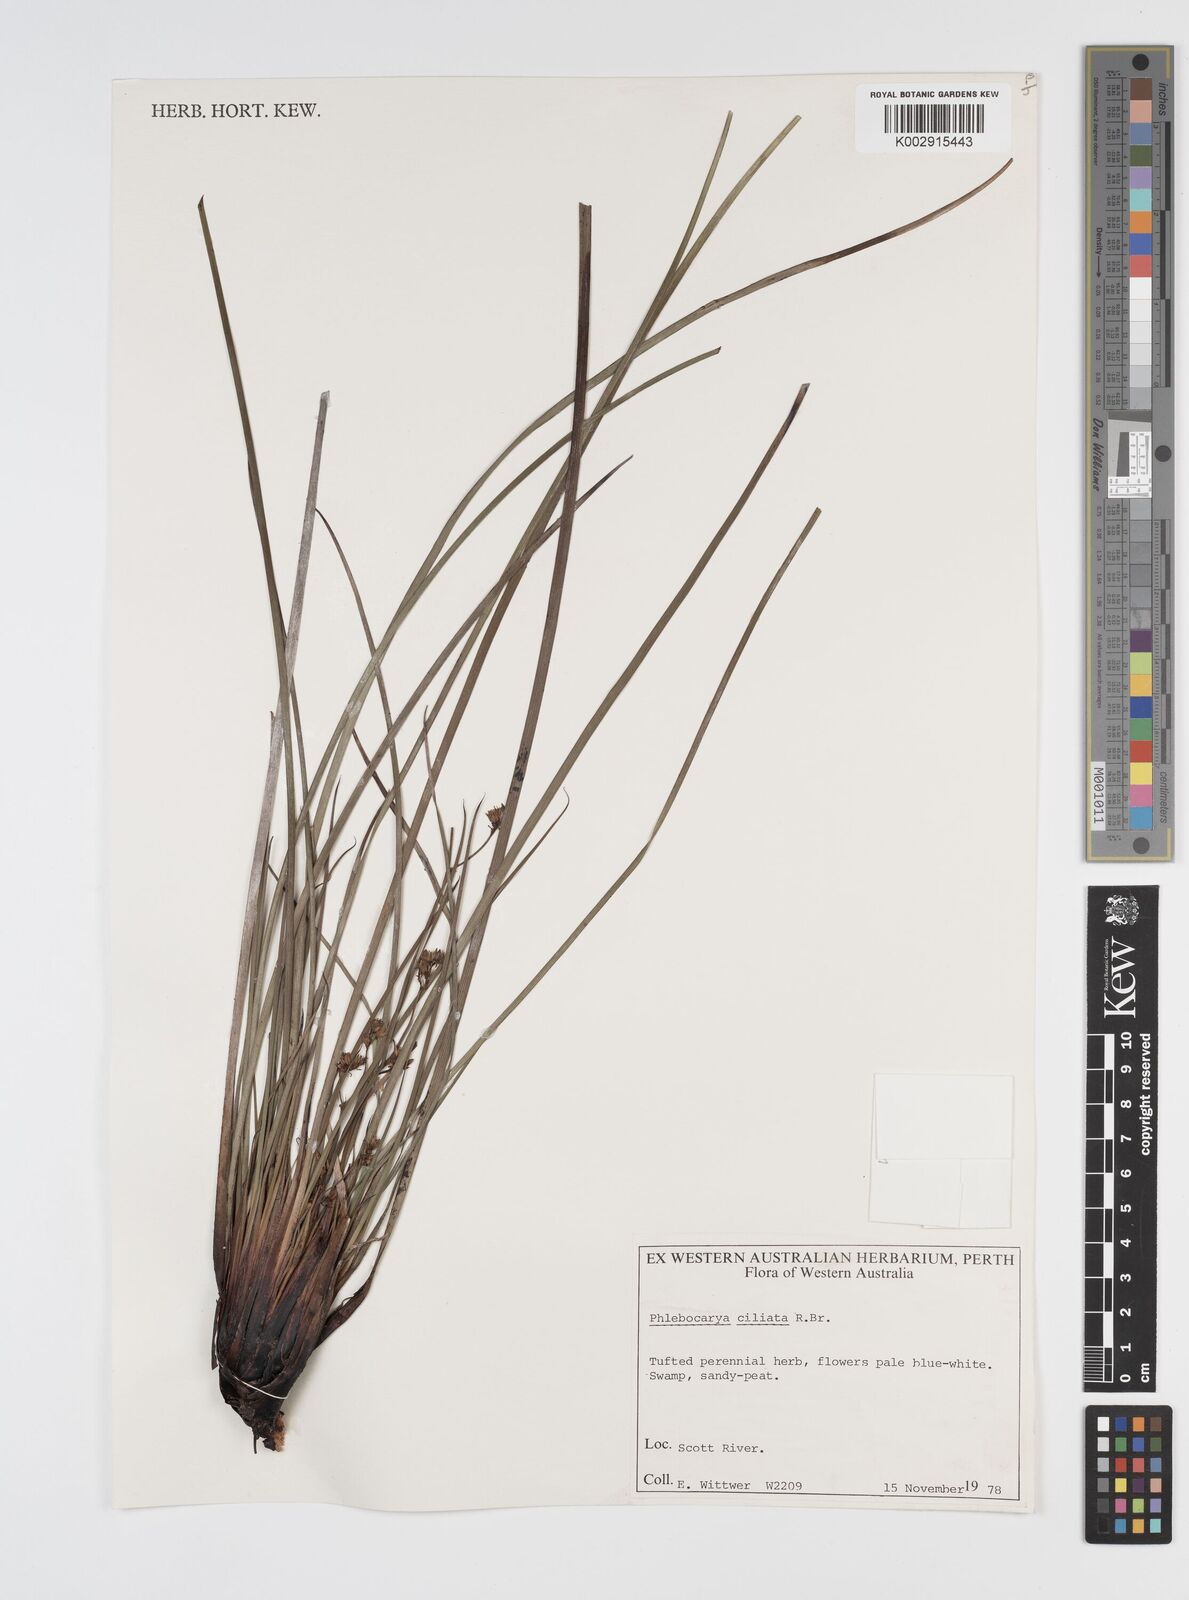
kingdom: Plantae
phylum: Tracheophyta
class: Liliopsida
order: Commelinales
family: Haemodoraceae
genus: Phlebocarya
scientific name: Phlebocarya ciliata
